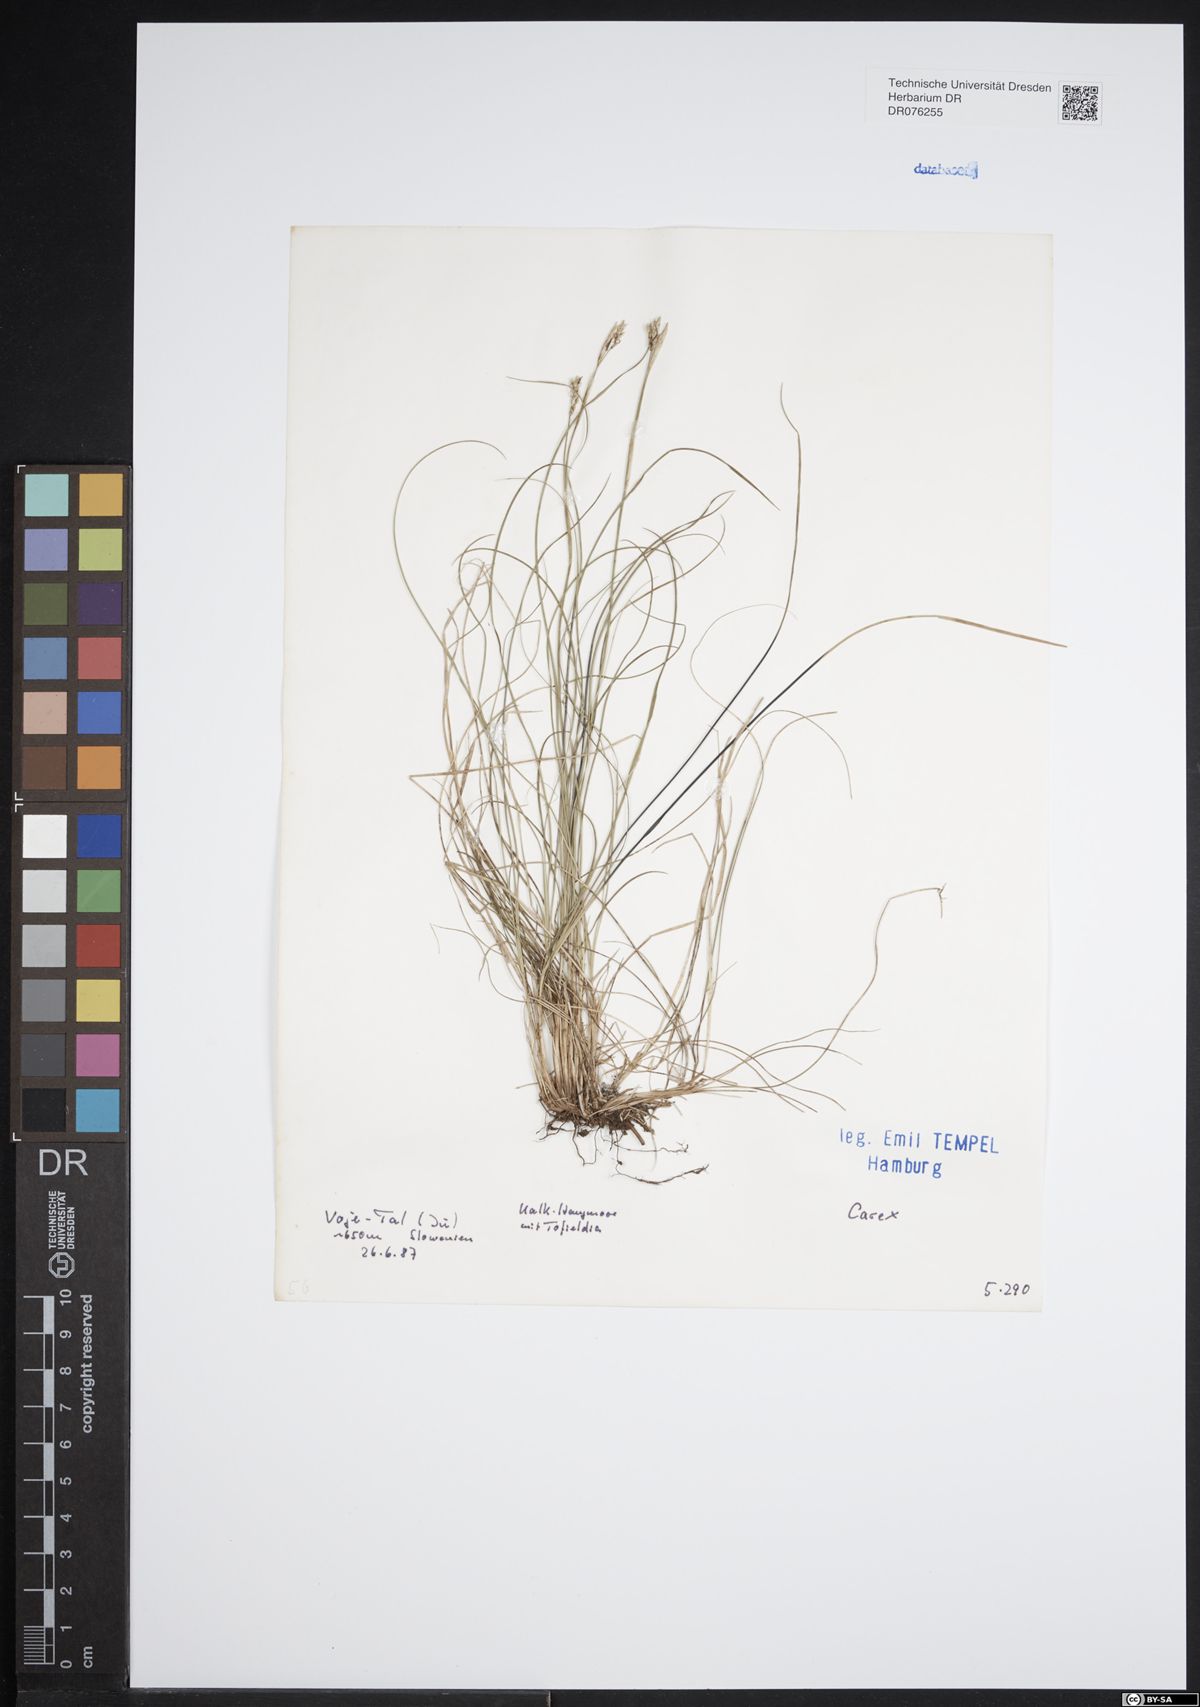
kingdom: Plantae
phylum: Tracheophyta
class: Liliopsida
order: Poales
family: Cyperaceae
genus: Carex
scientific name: Carex
